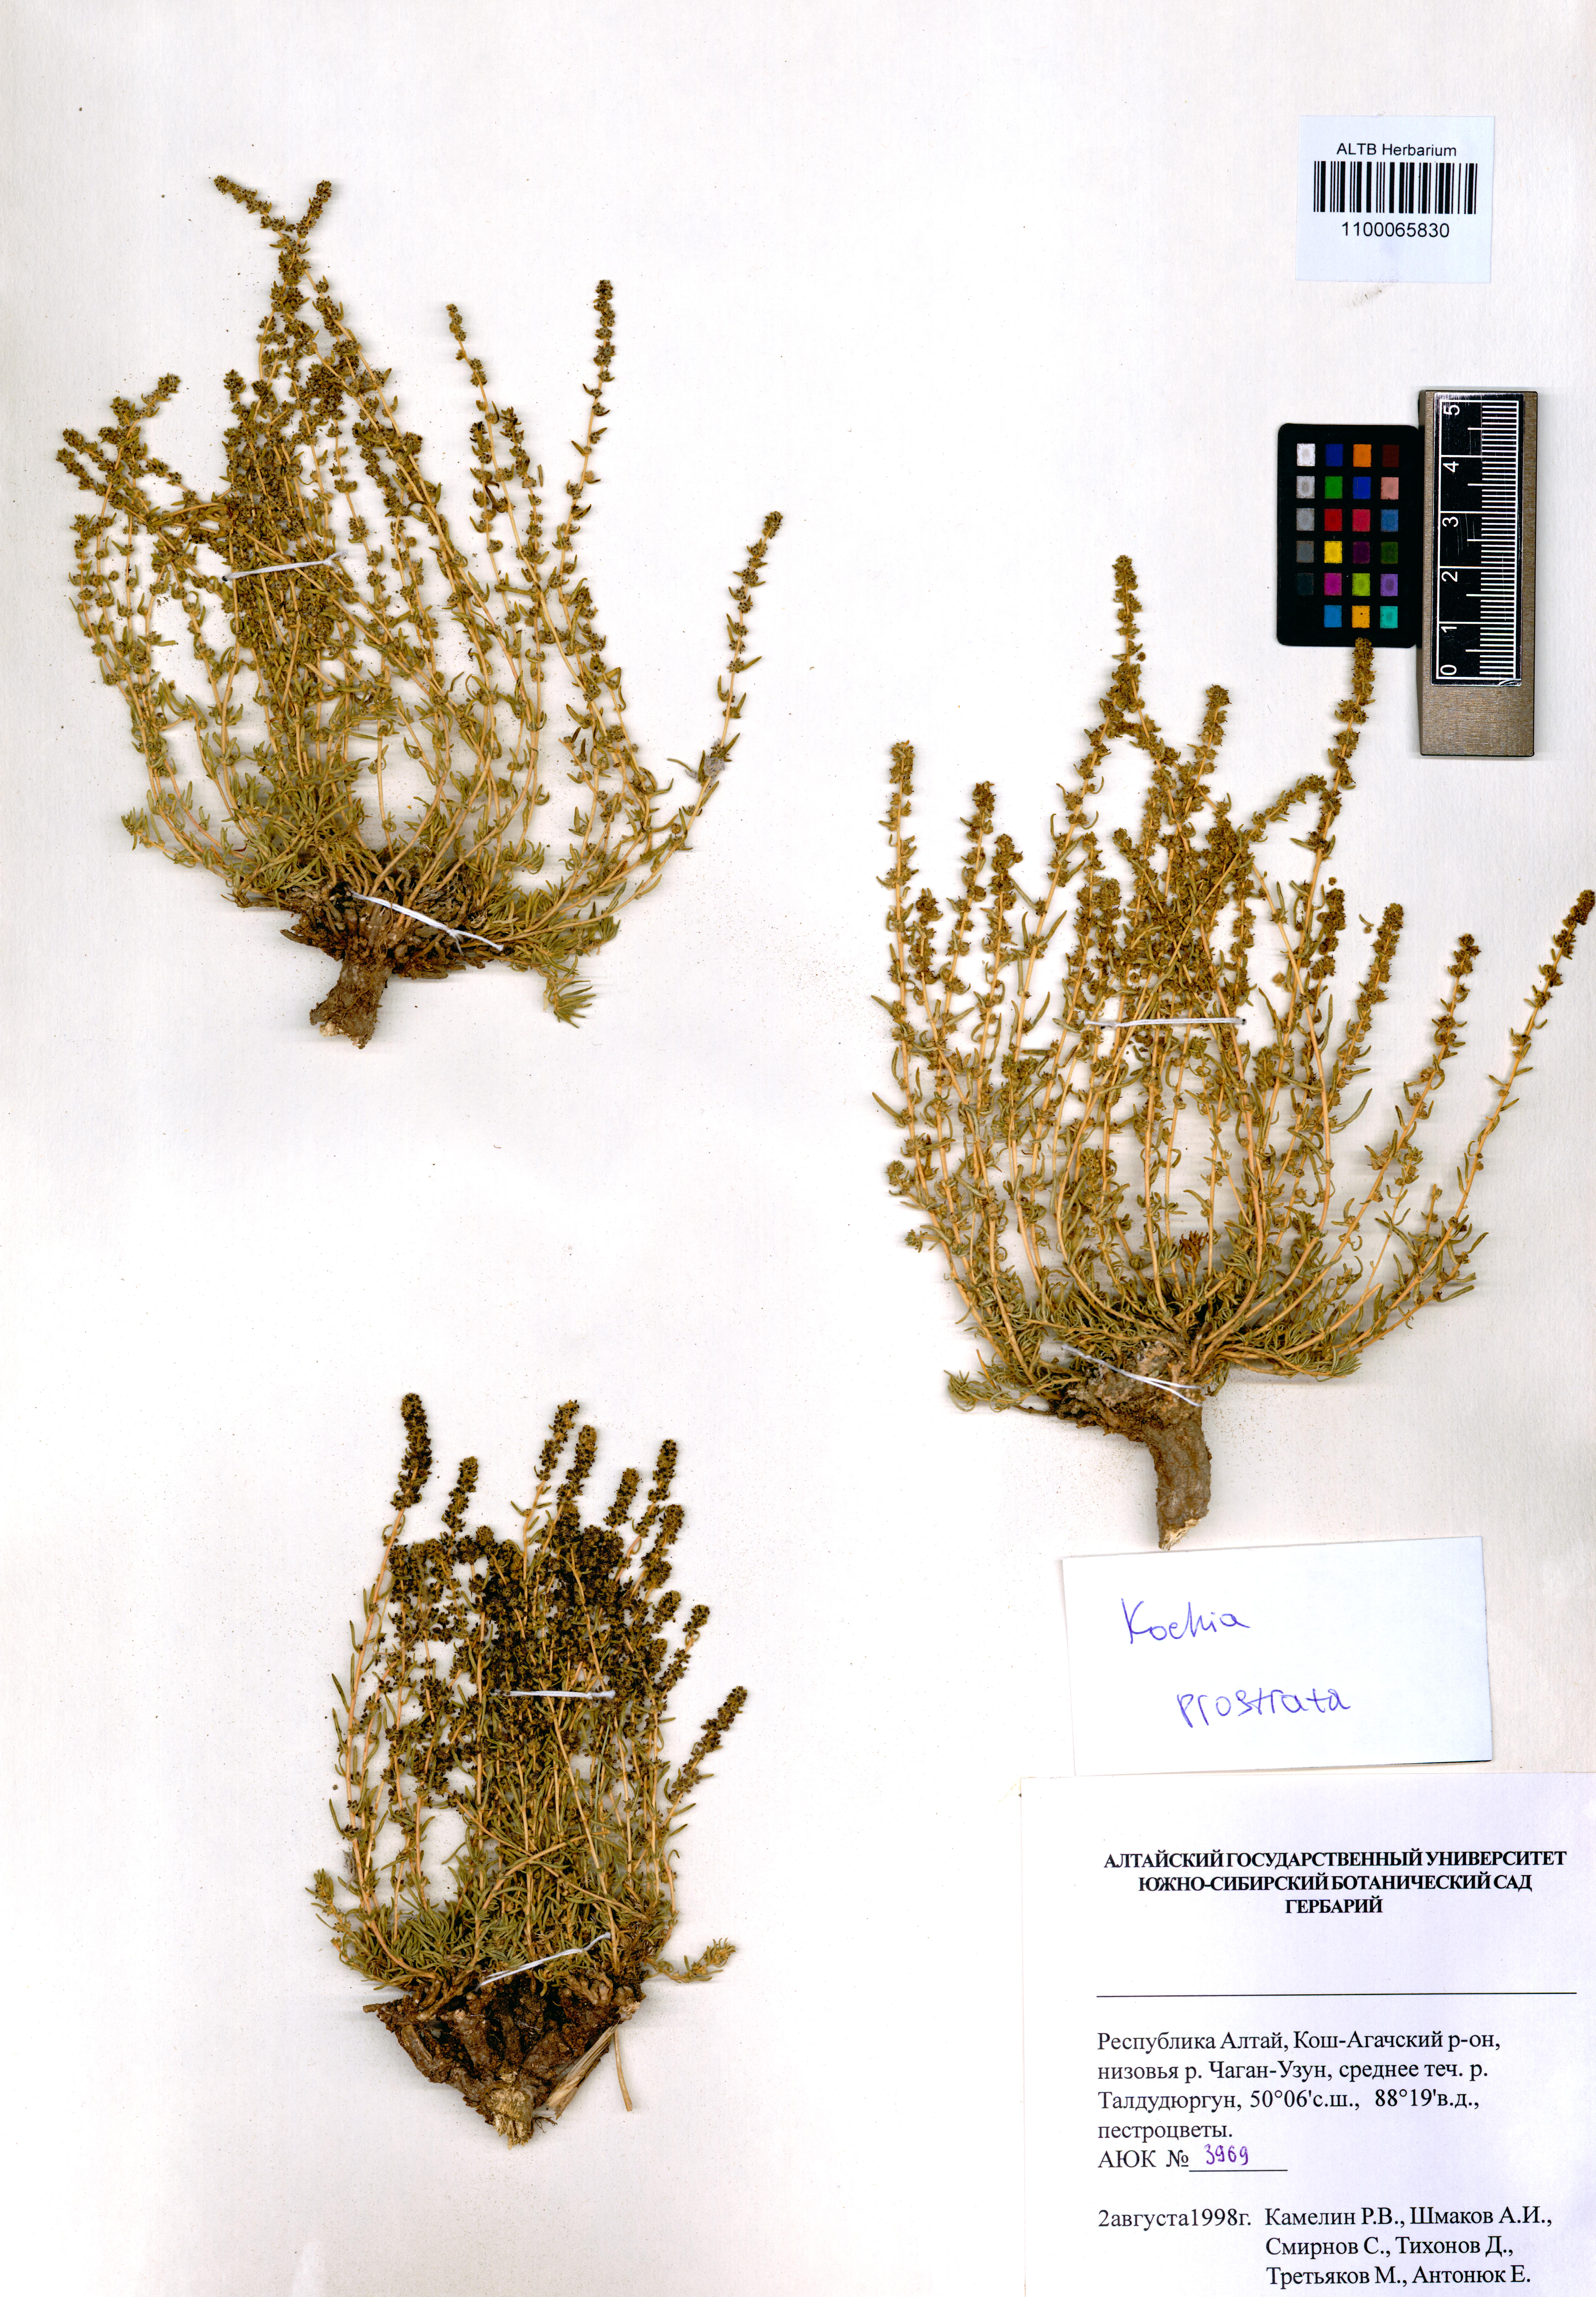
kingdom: Plantae
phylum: Tracheophyta
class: Magnoliopsida
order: Caryophyllales
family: Amaranthaceae
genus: Bassia
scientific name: Bassia prostrata
